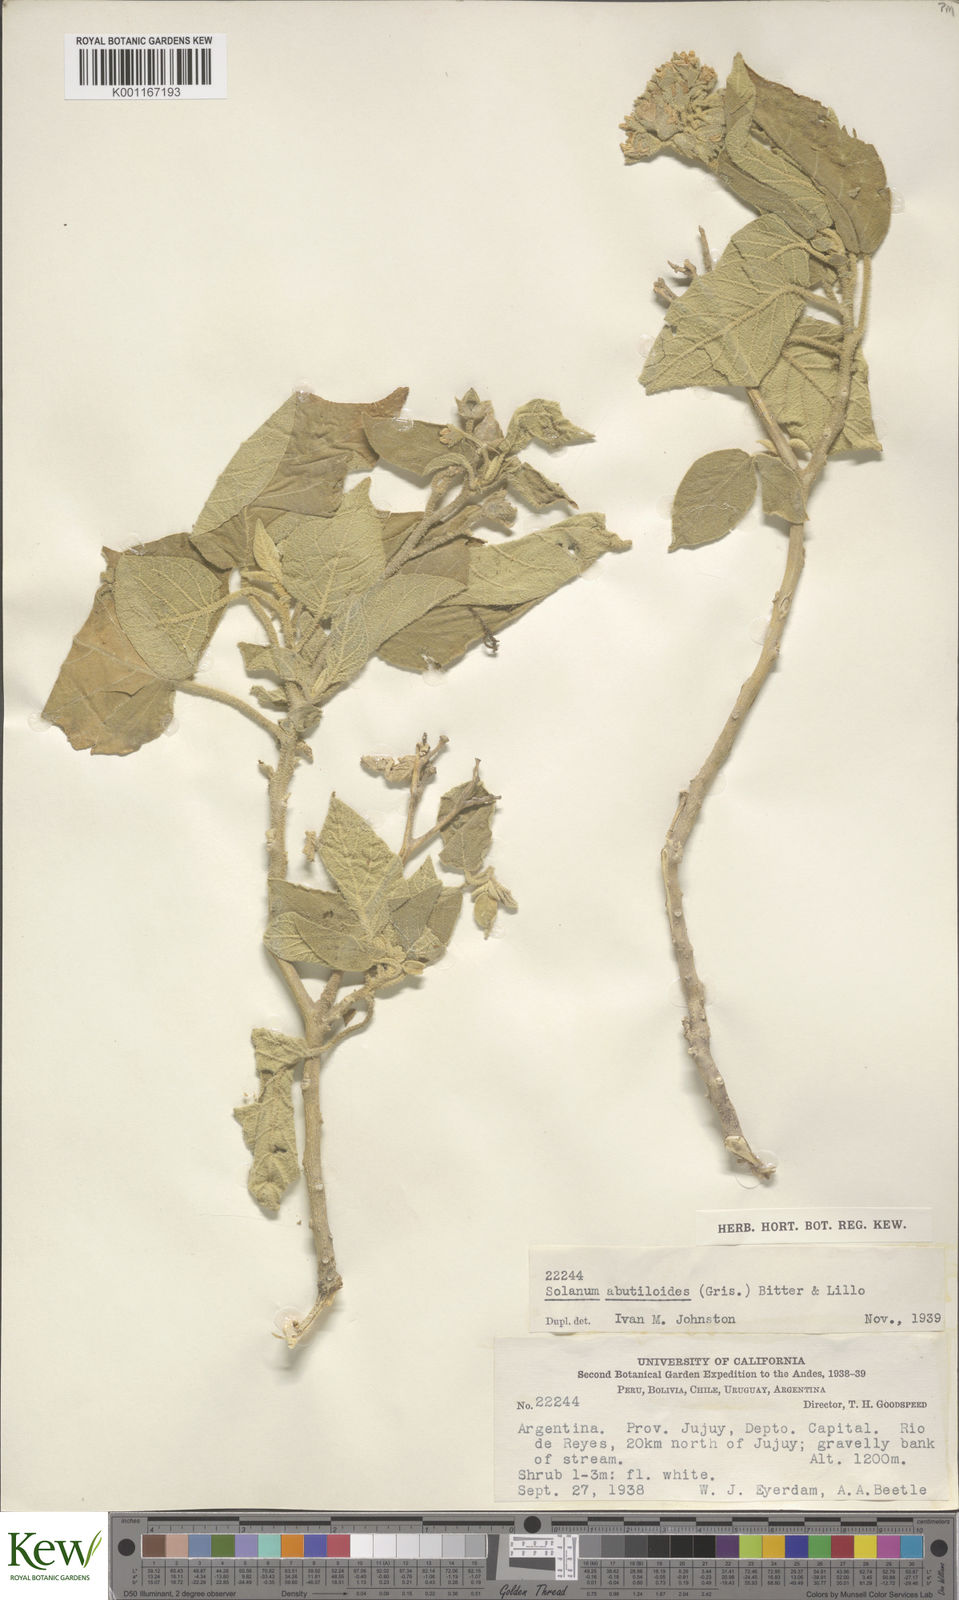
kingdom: Plantae
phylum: Tracheophyta
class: Magnoliopsida
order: Solanales
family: Solanaceae
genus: Solanum
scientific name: Solanum abutiloides
